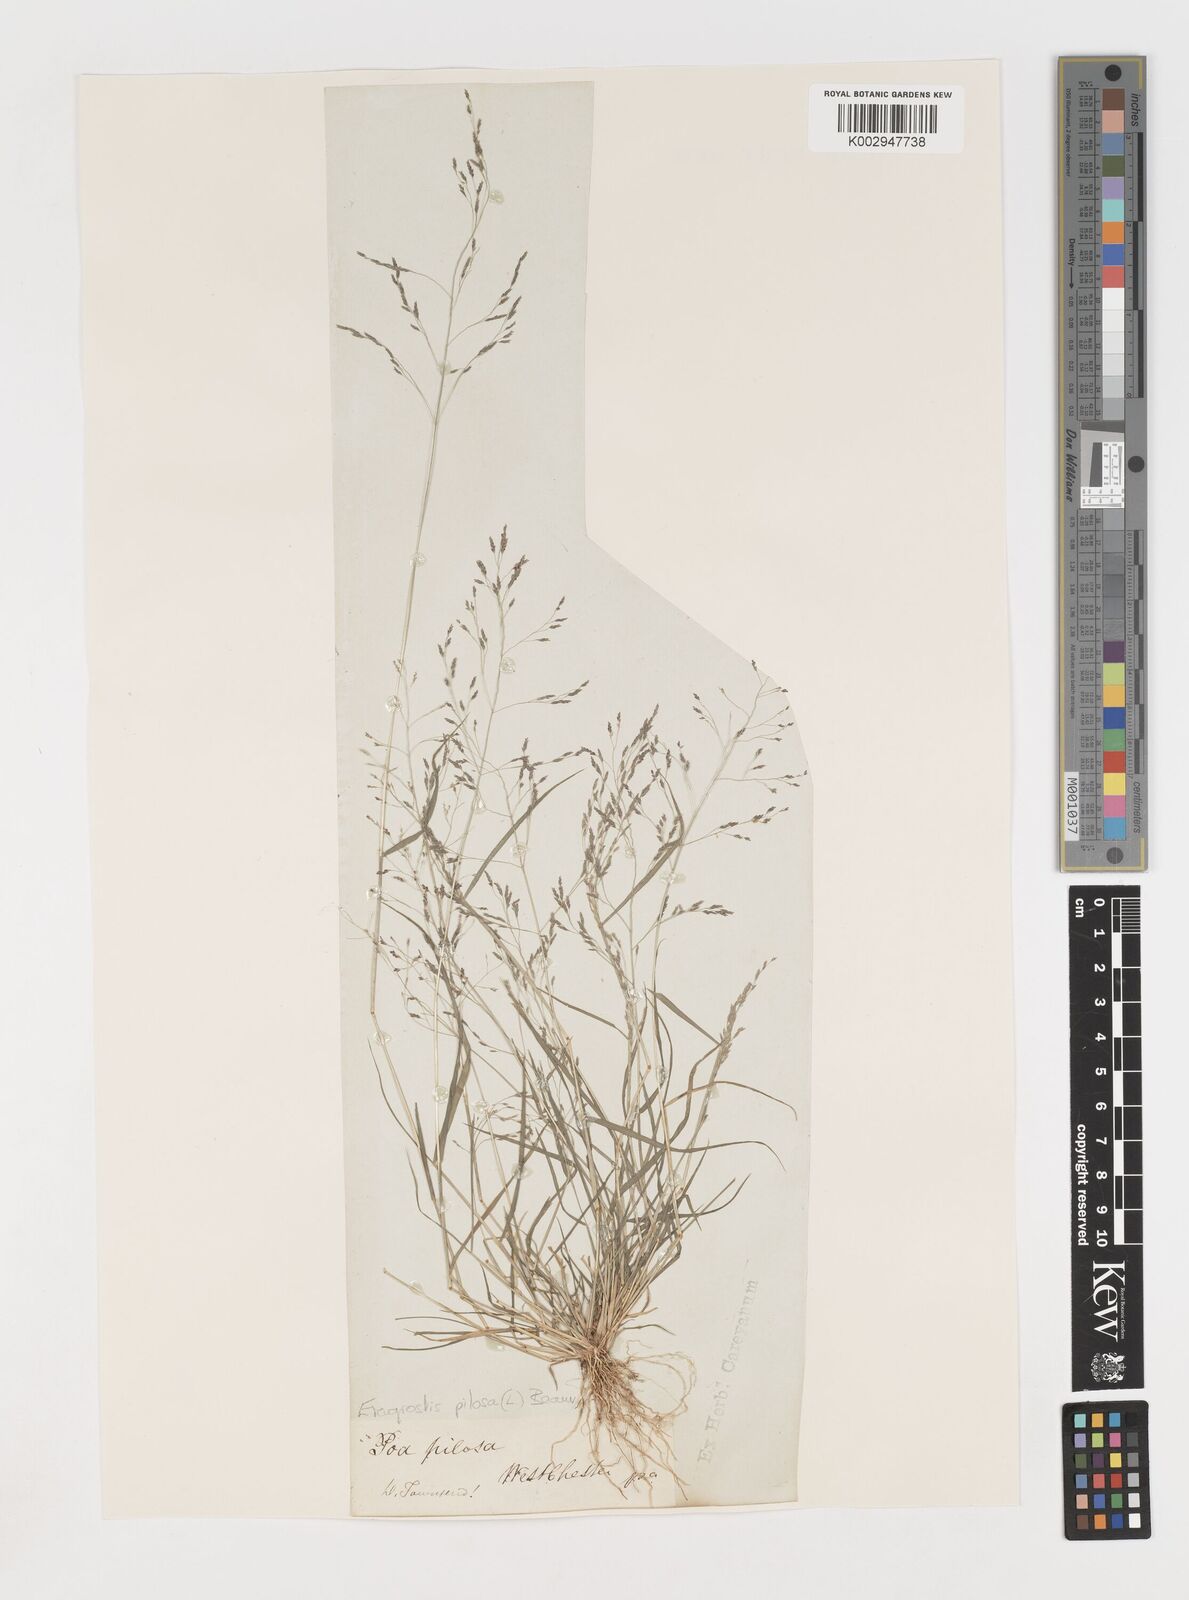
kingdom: Plantae
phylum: Tracheophyta
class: Liliopsida
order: Poales
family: Poaceae
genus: Eragrostis
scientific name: Eragrostis pilosa
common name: Indian lovegrass
